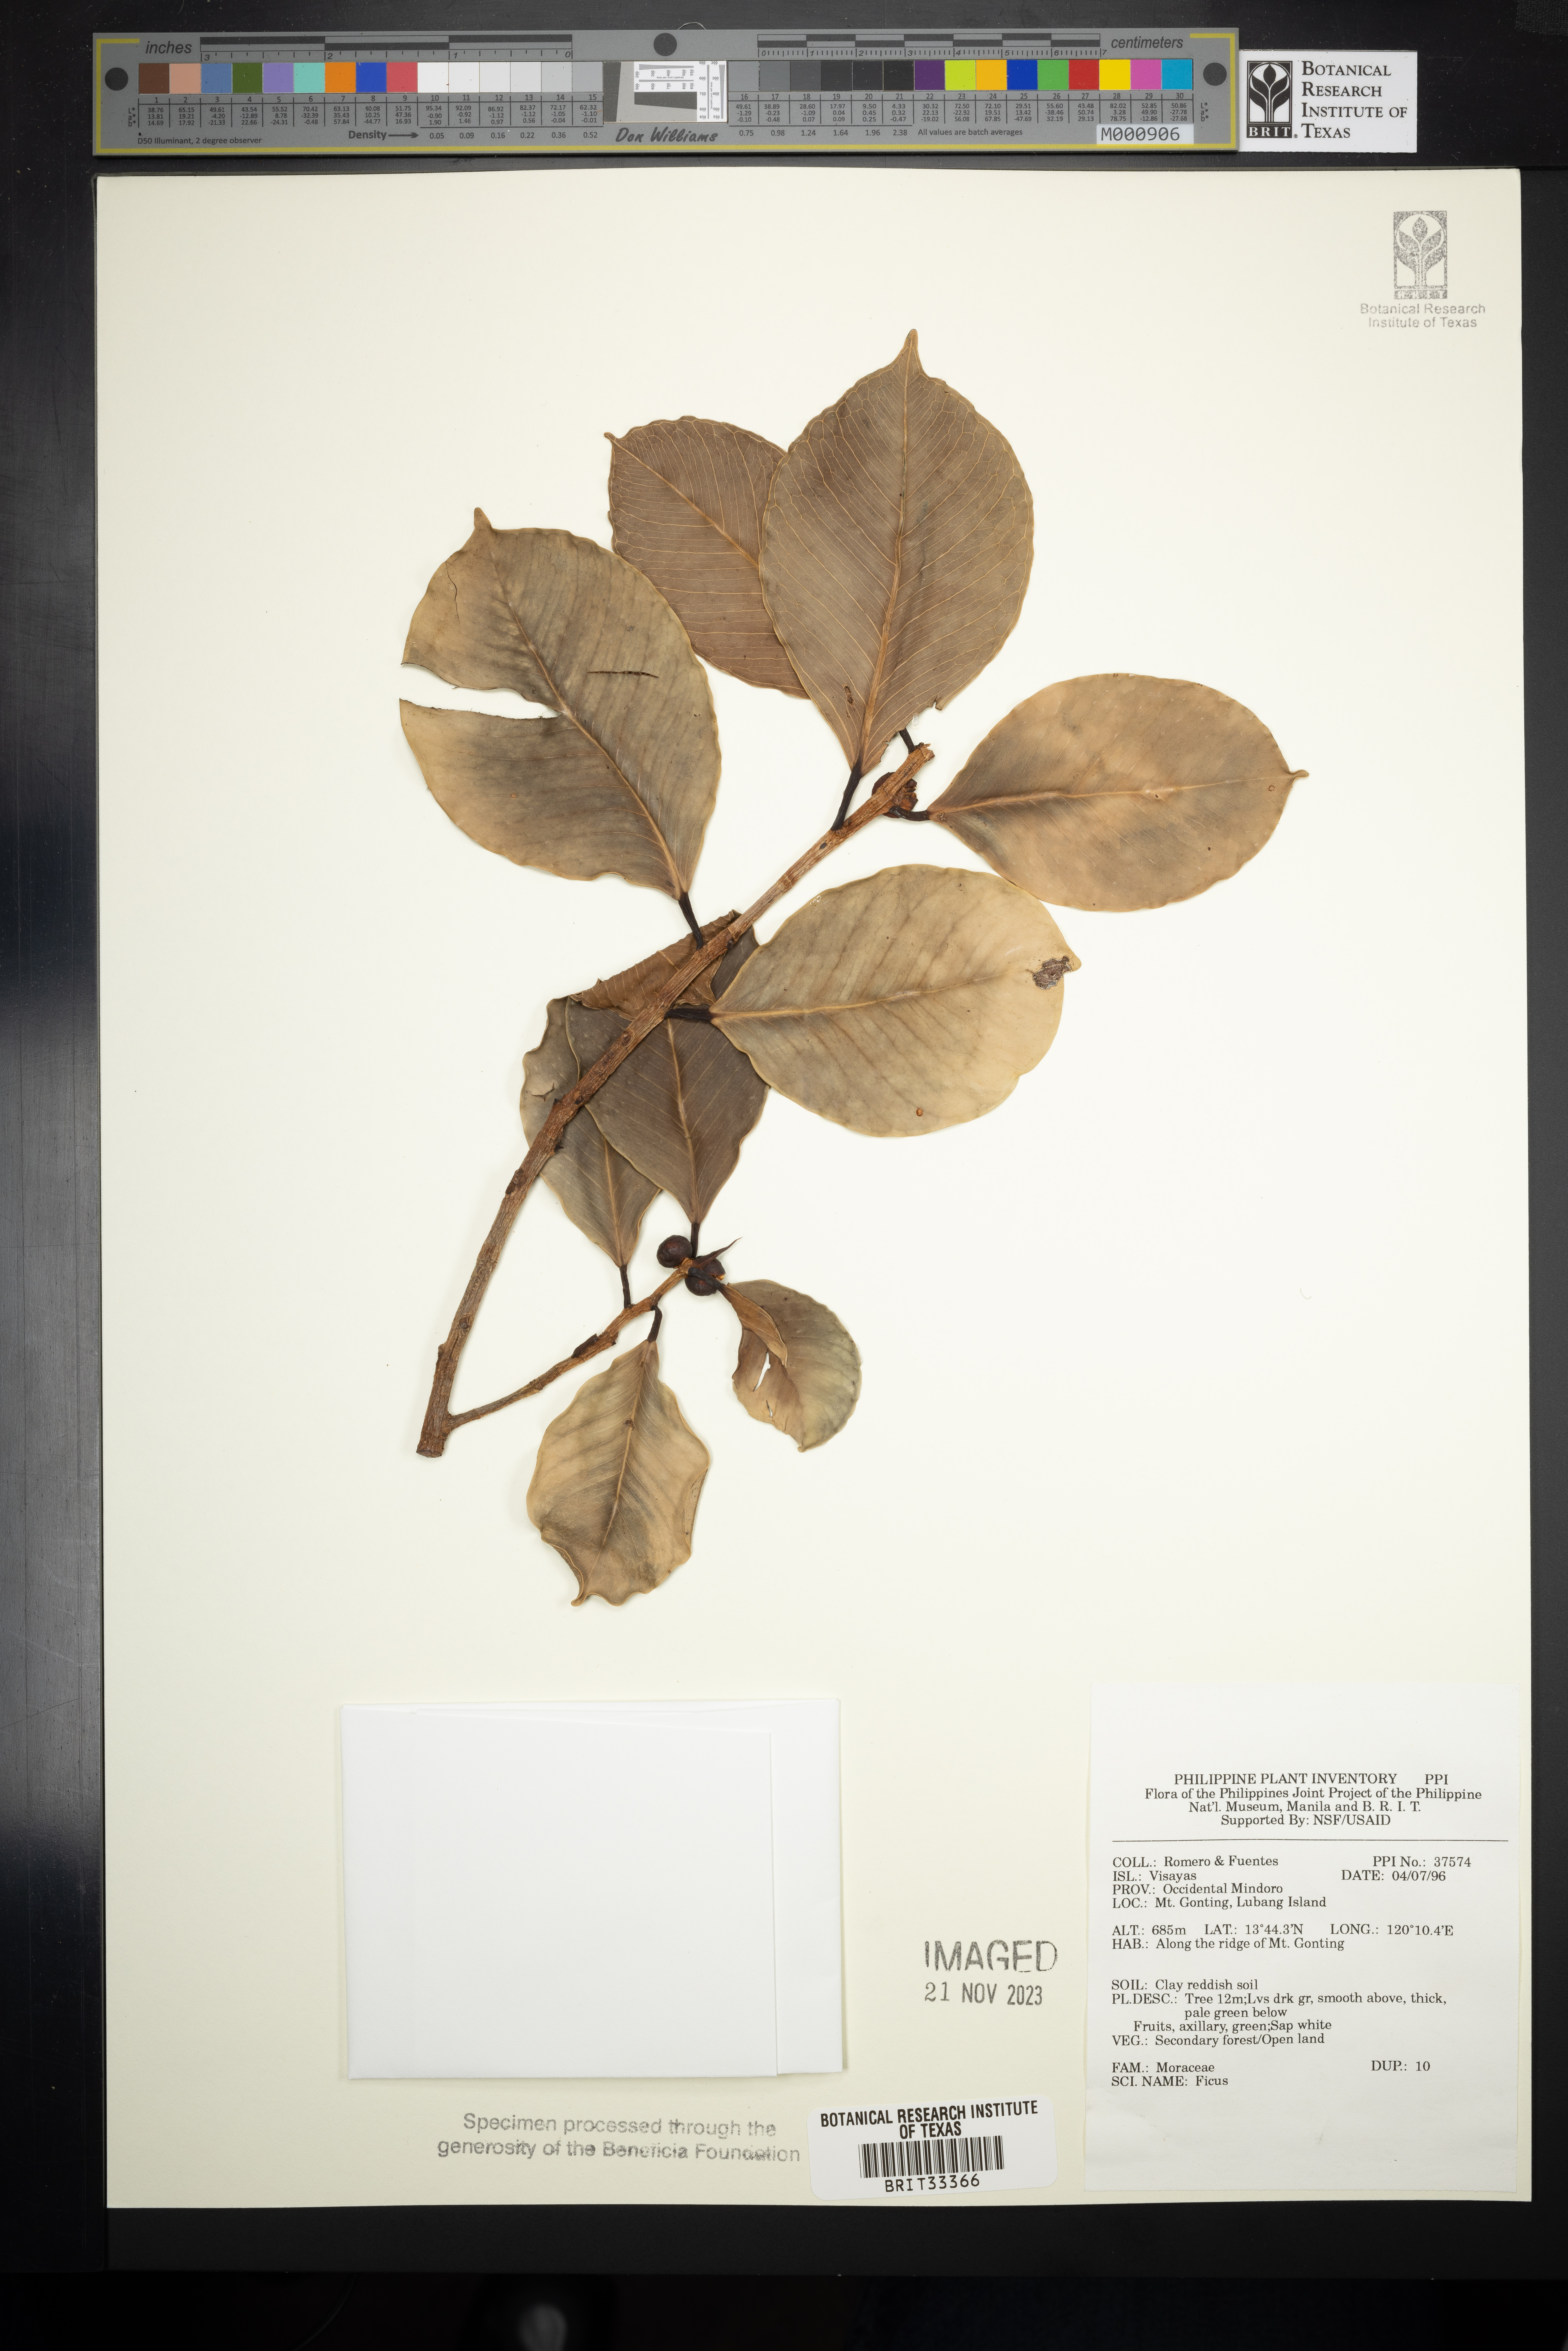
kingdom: Plantae
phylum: Tracheophyta
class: Magnoliopsida
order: Rosales
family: Moraceae
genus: Ficus
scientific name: Ficus
